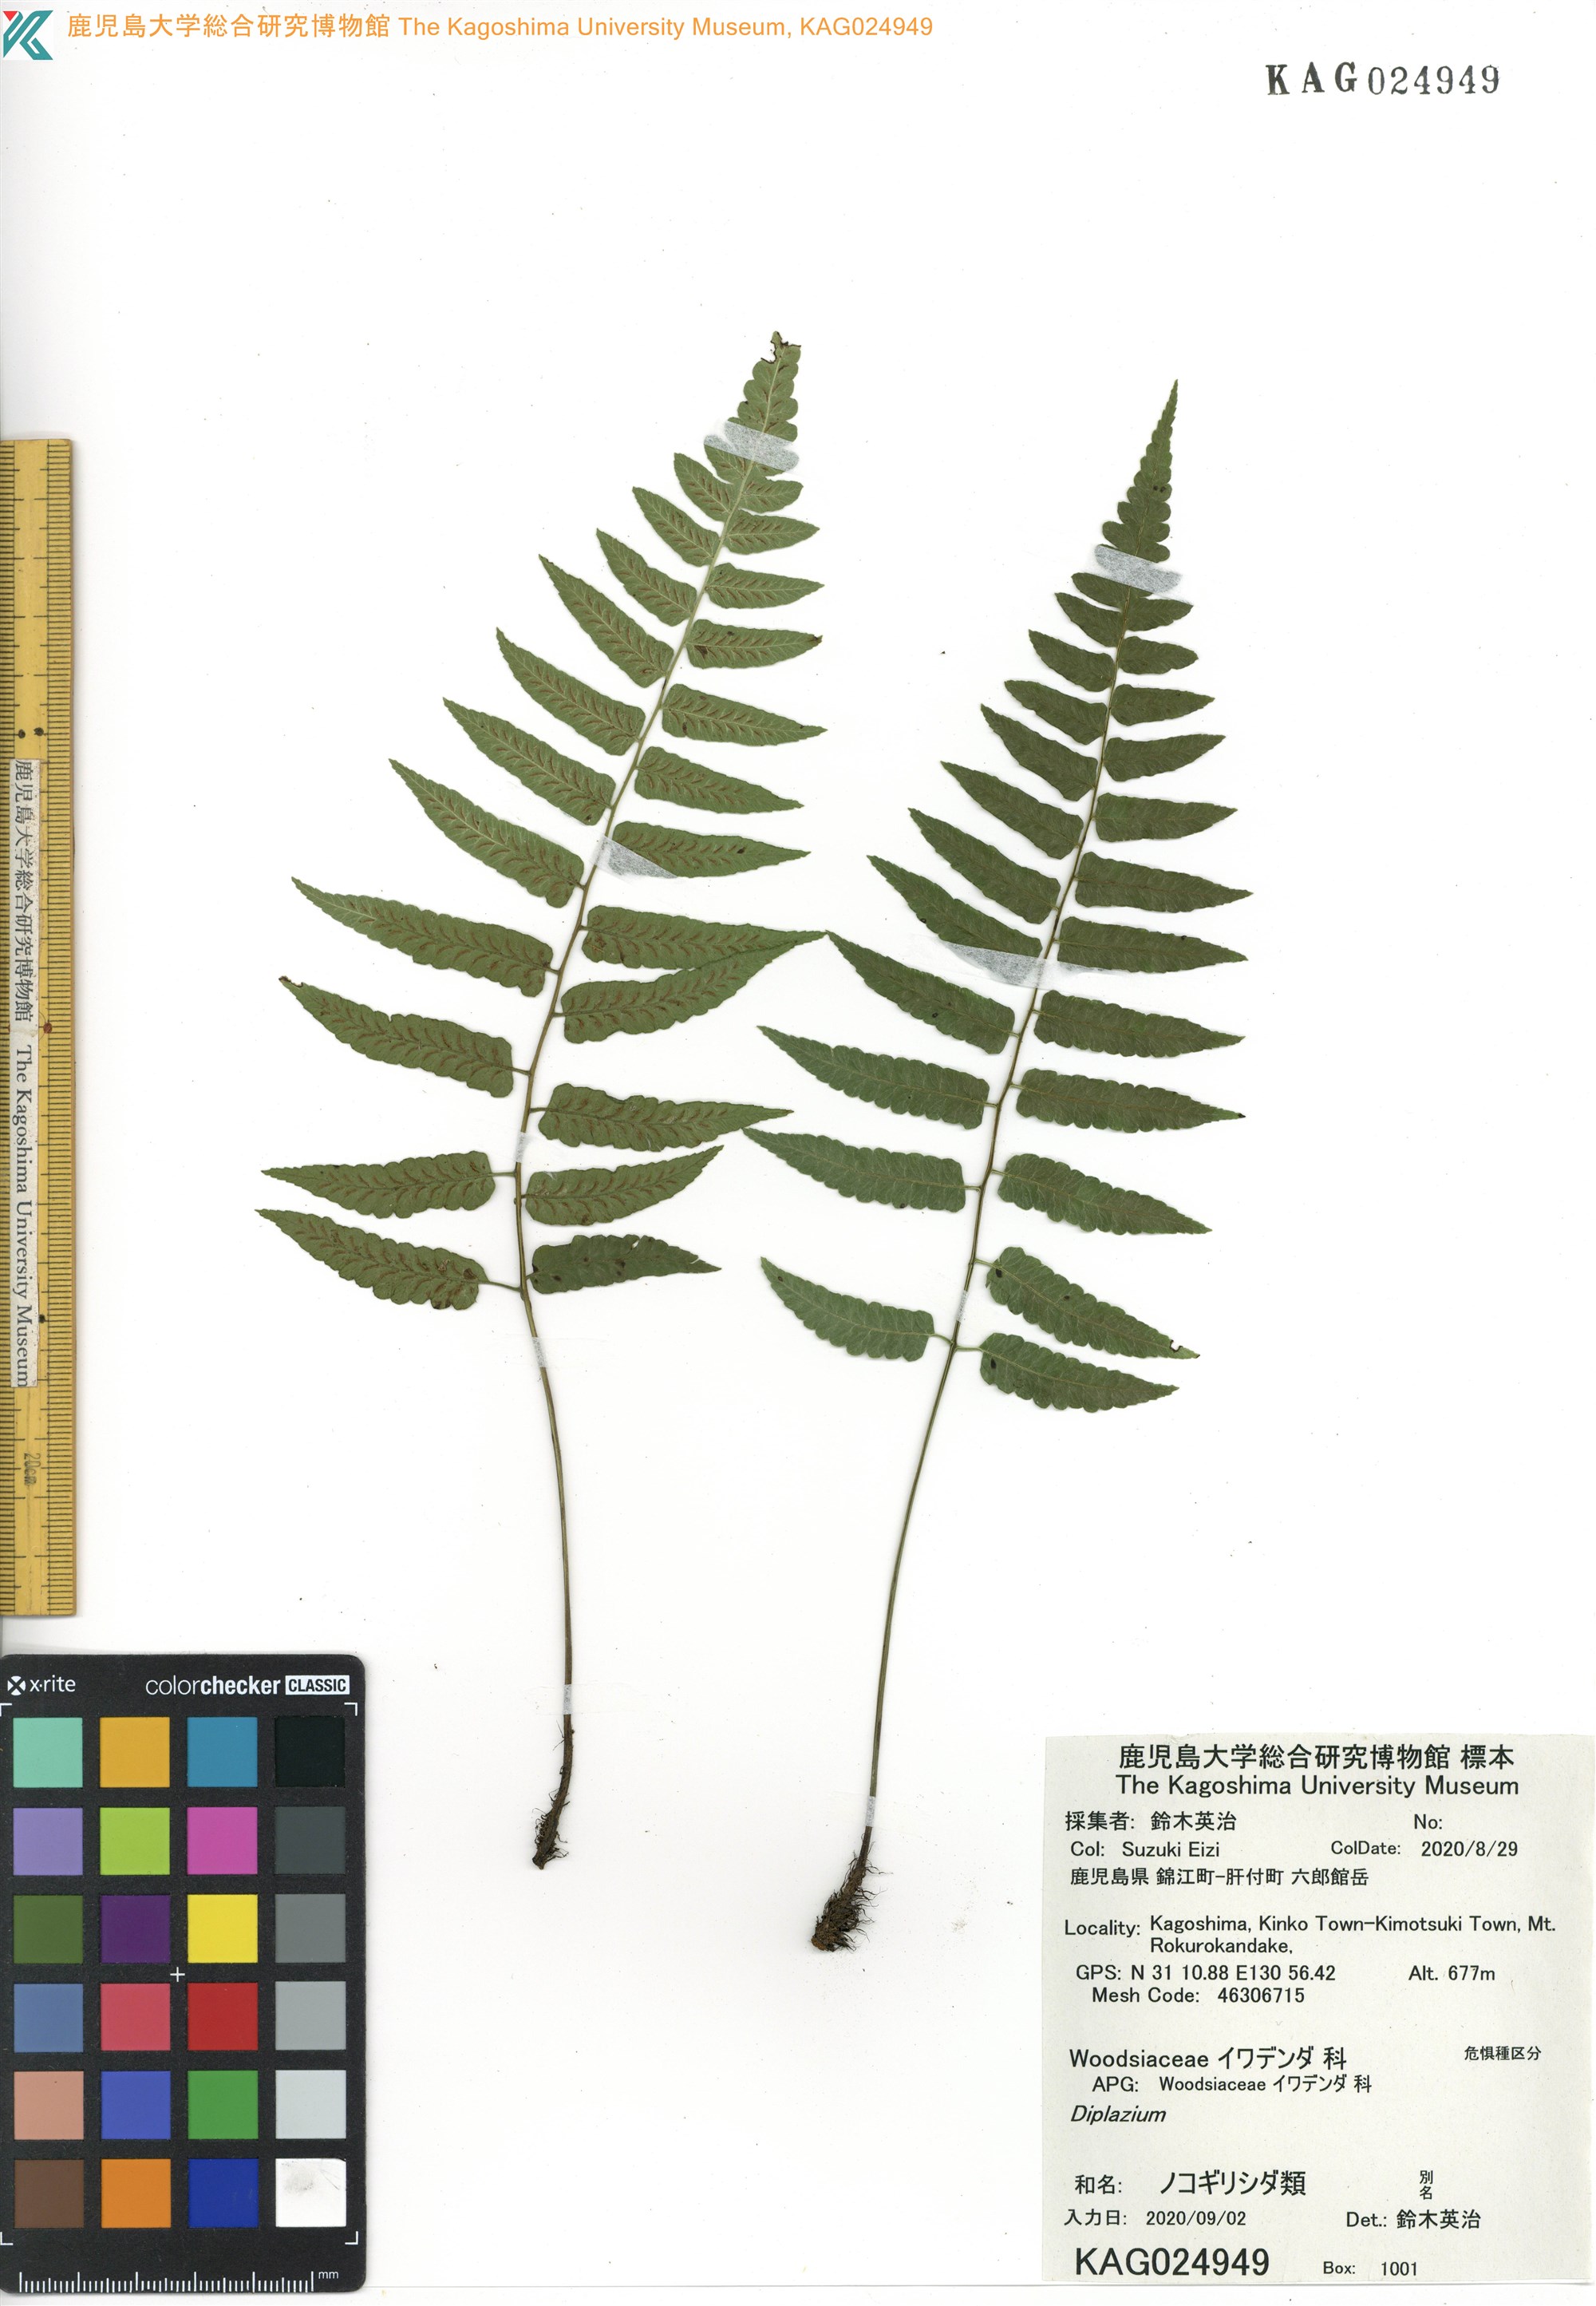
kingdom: Plantae
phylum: Tracheophyta
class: Polypodiopsida
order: Polypodiales
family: Athyriaceae
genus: Diplazium
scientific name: Diplazium
